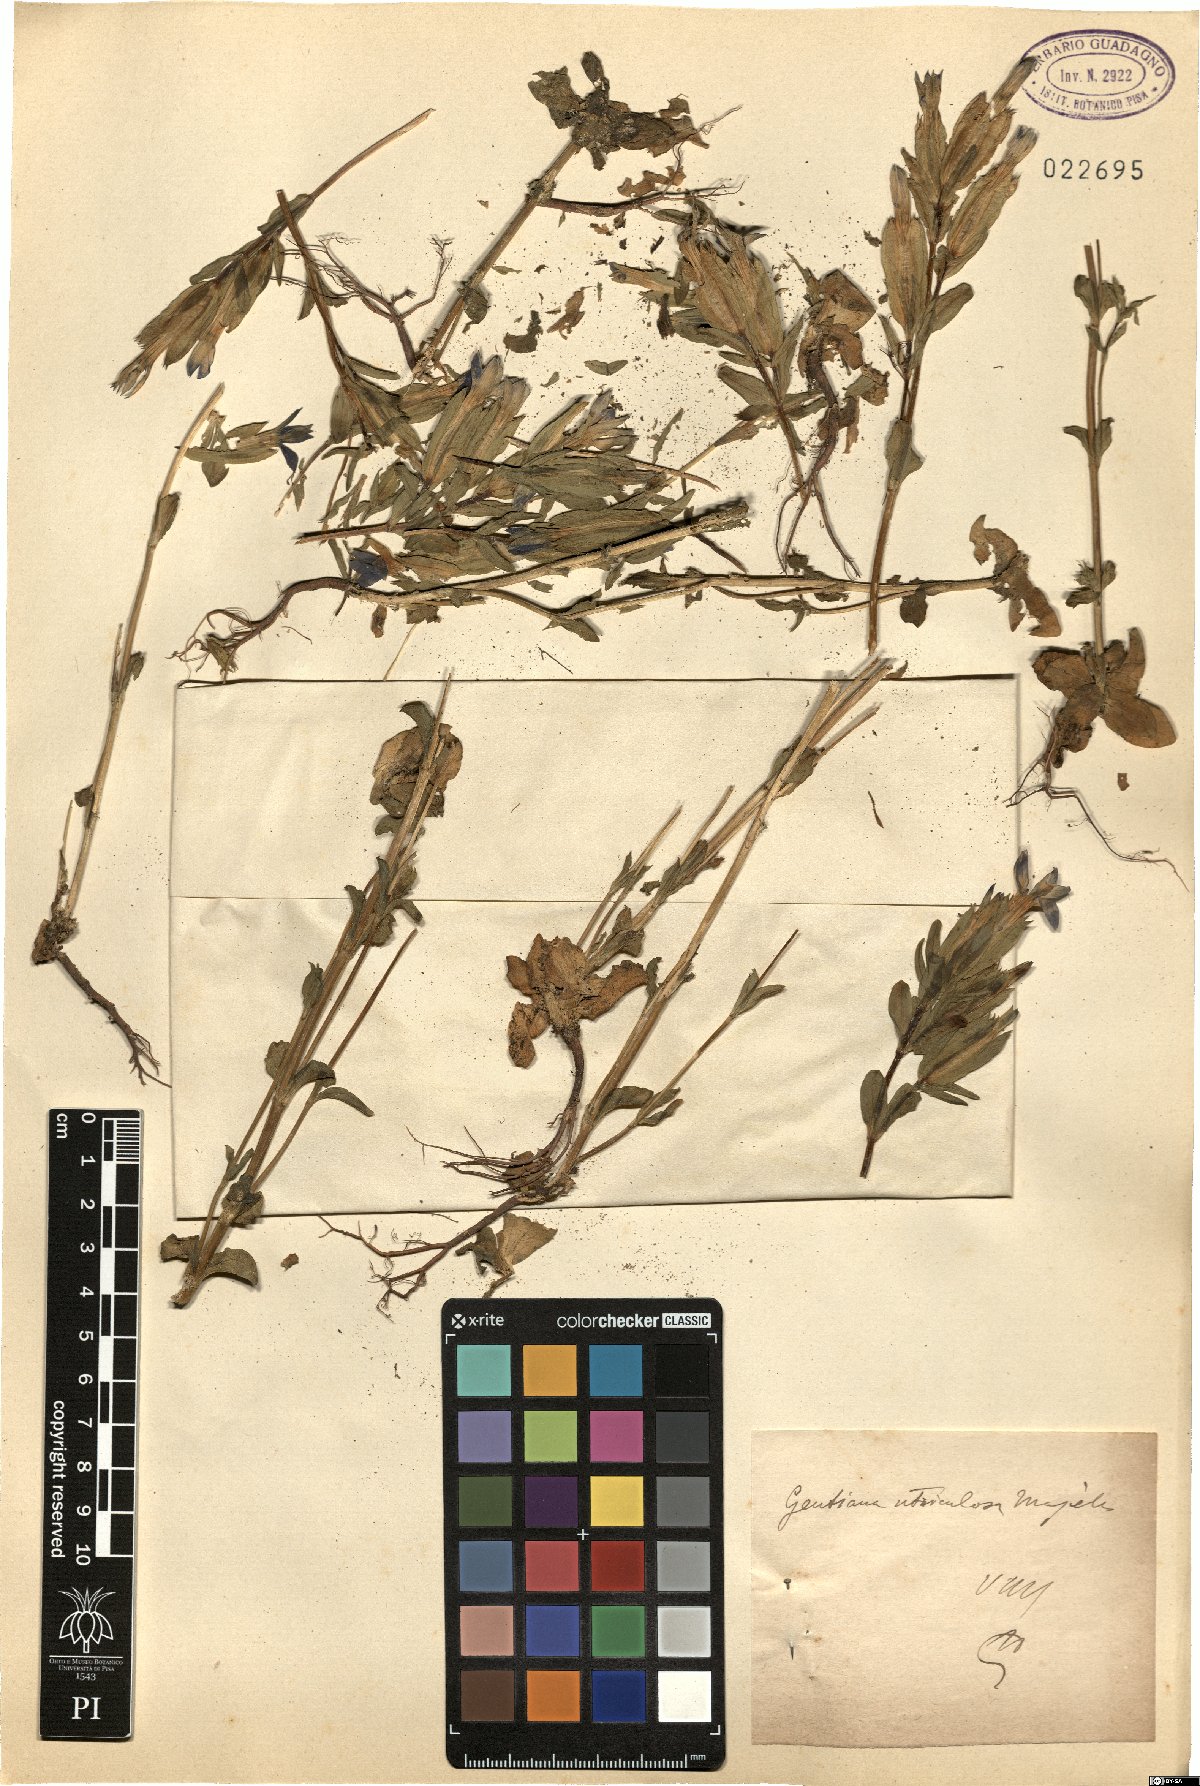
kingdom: Plantae
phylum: Tracheophyta
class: Magnoliopsida
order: Gentianales
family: Gentianaceae
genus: Gentiana
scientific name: Gentiana utriculosa
